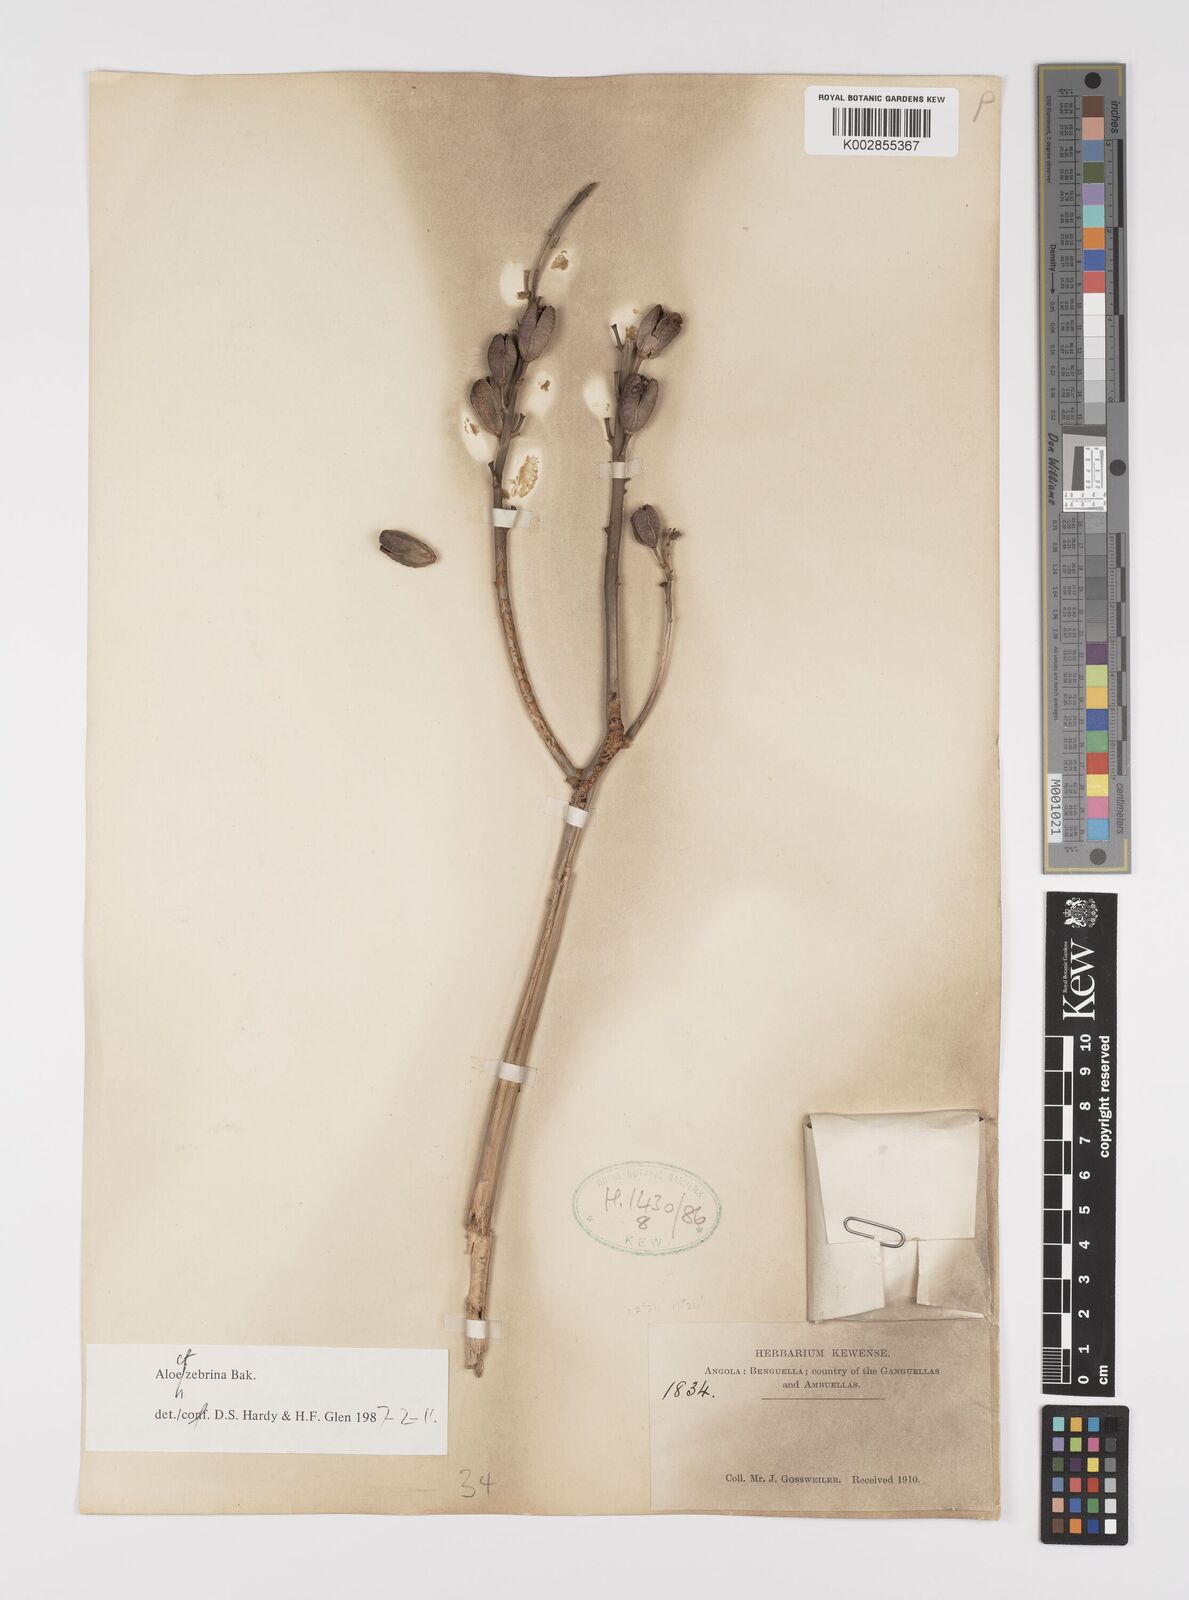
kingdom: Plantae
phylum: Tracheophyta
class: Liliopsida
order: Asparagales
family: Asphodelaceae
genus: Aloe
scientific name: Aloe
